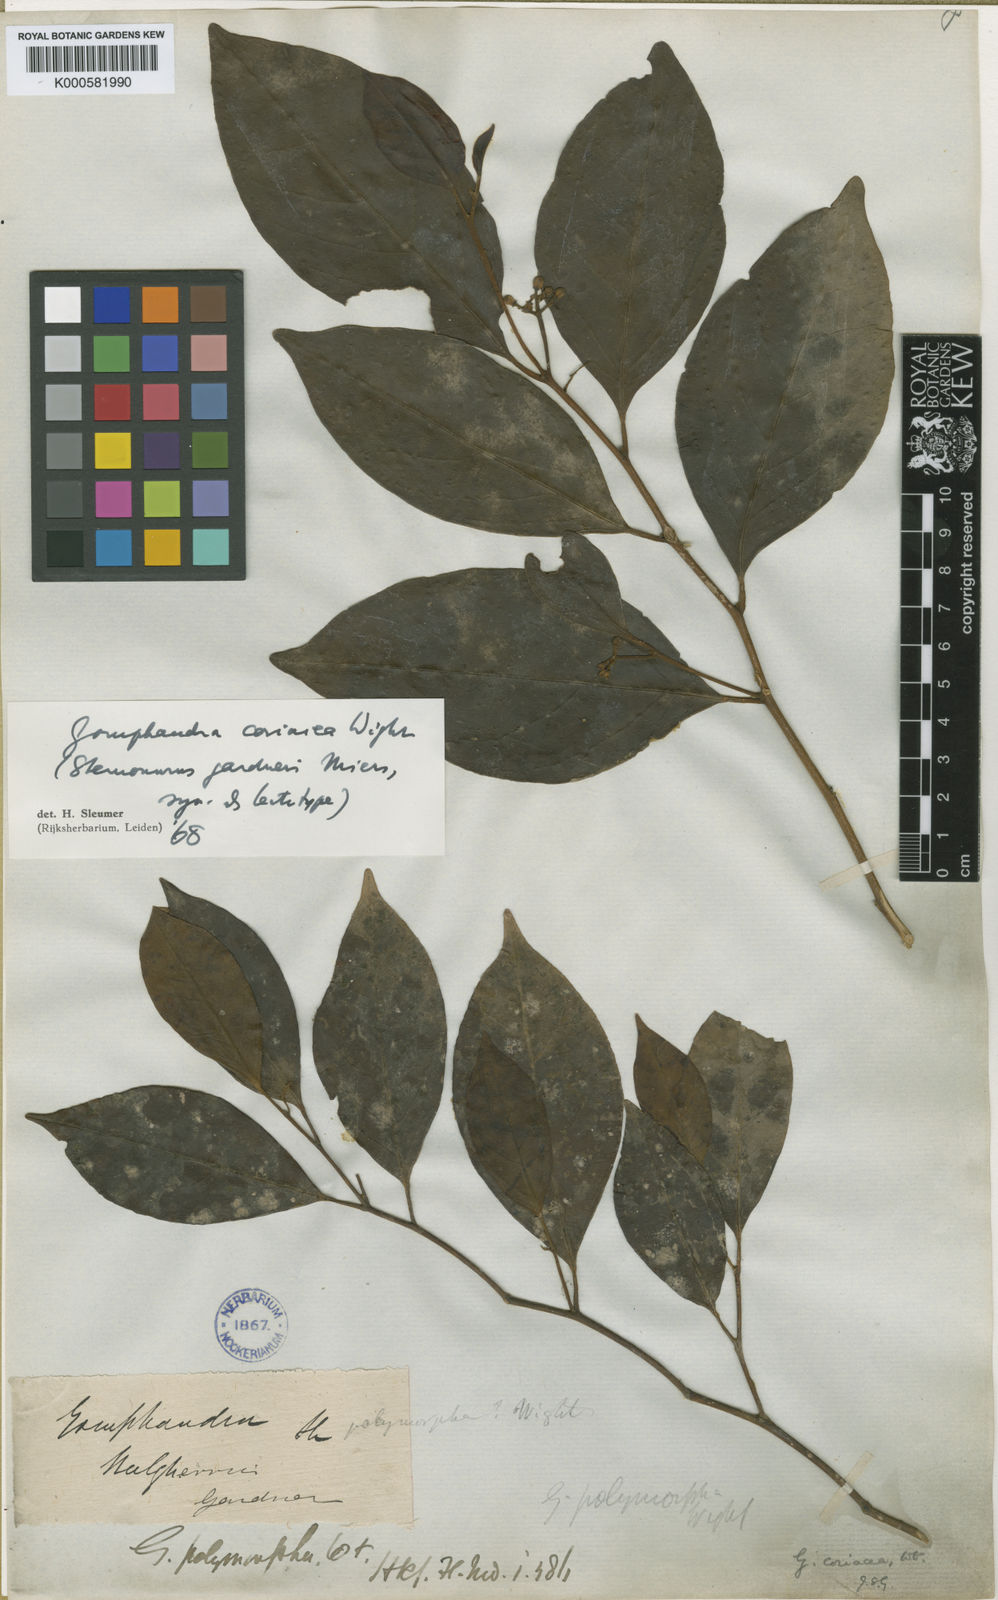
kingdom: Plantae
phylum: Tracheophyta
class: Magnoliopsida
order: Cardiopteridales
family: Stemonuraceae
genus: Gomphandra
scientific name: Gomphandra coriacea
